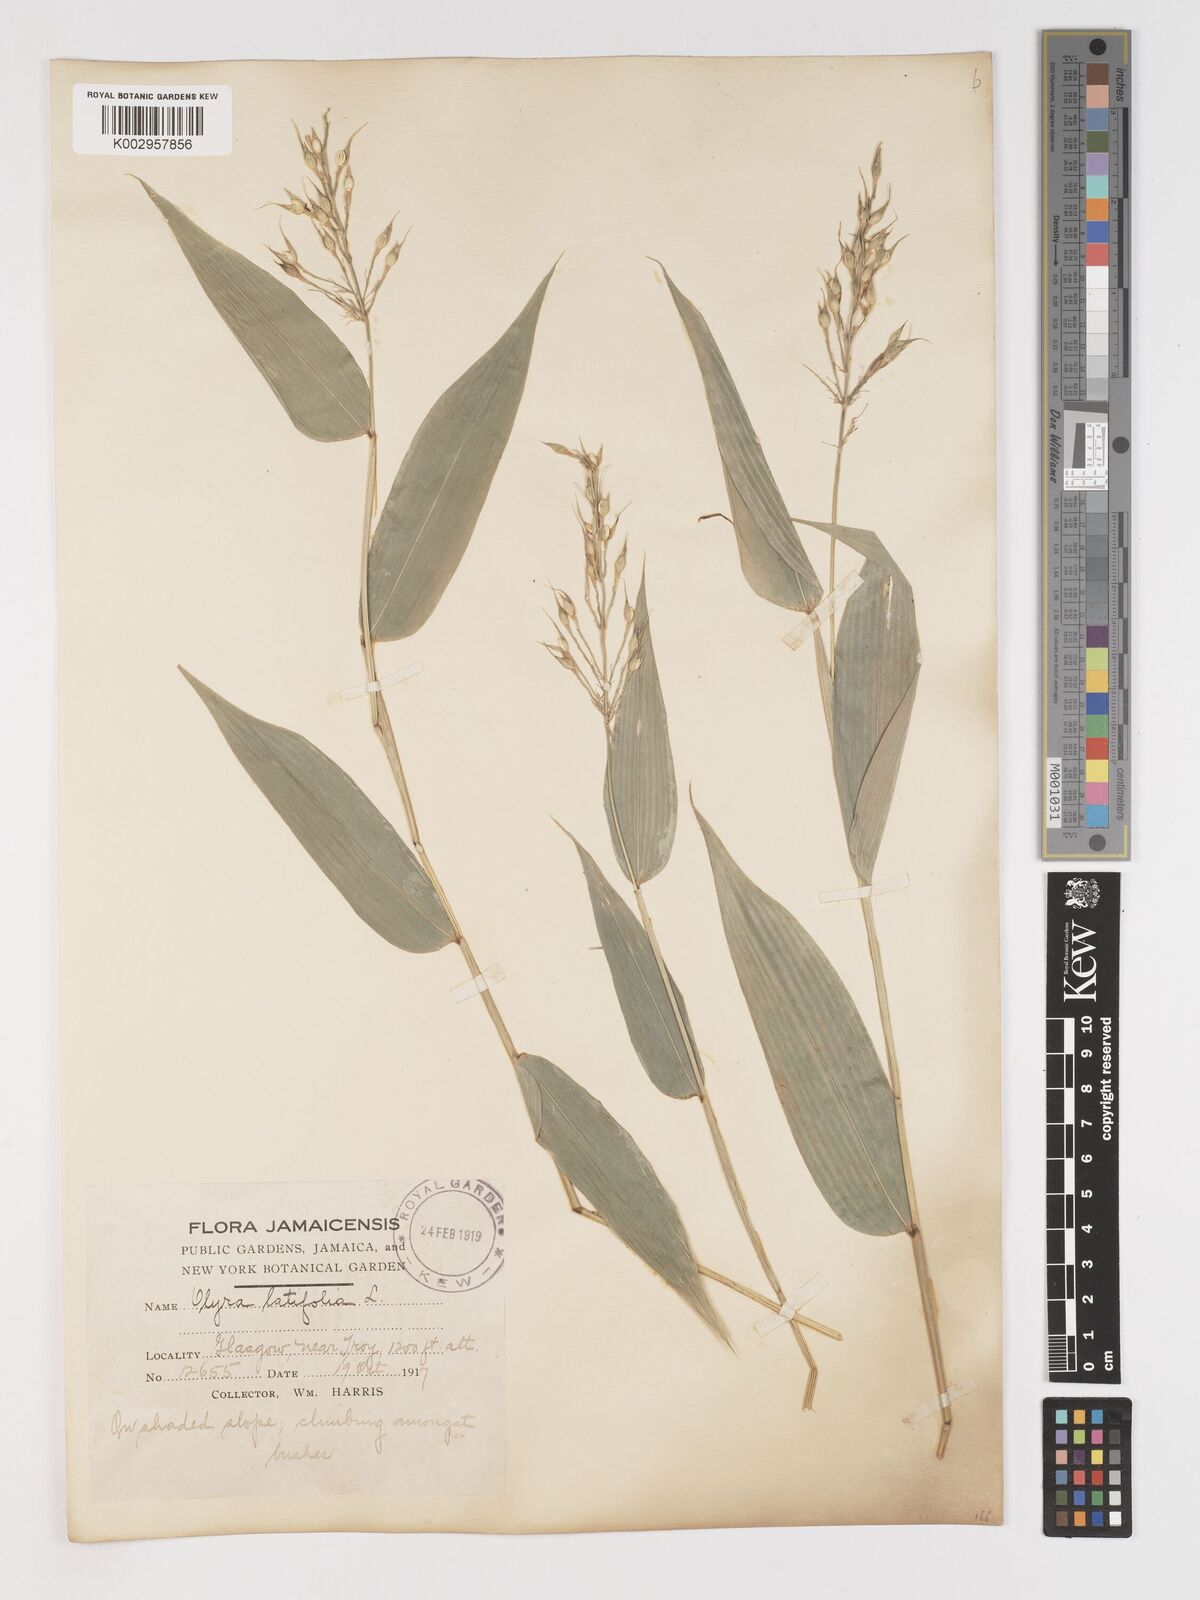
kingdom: Plantae
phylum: Tracheophyta
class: Liliopsida
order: Poales
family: Poaceae
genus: Olyra
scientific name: Olyra latifolia
